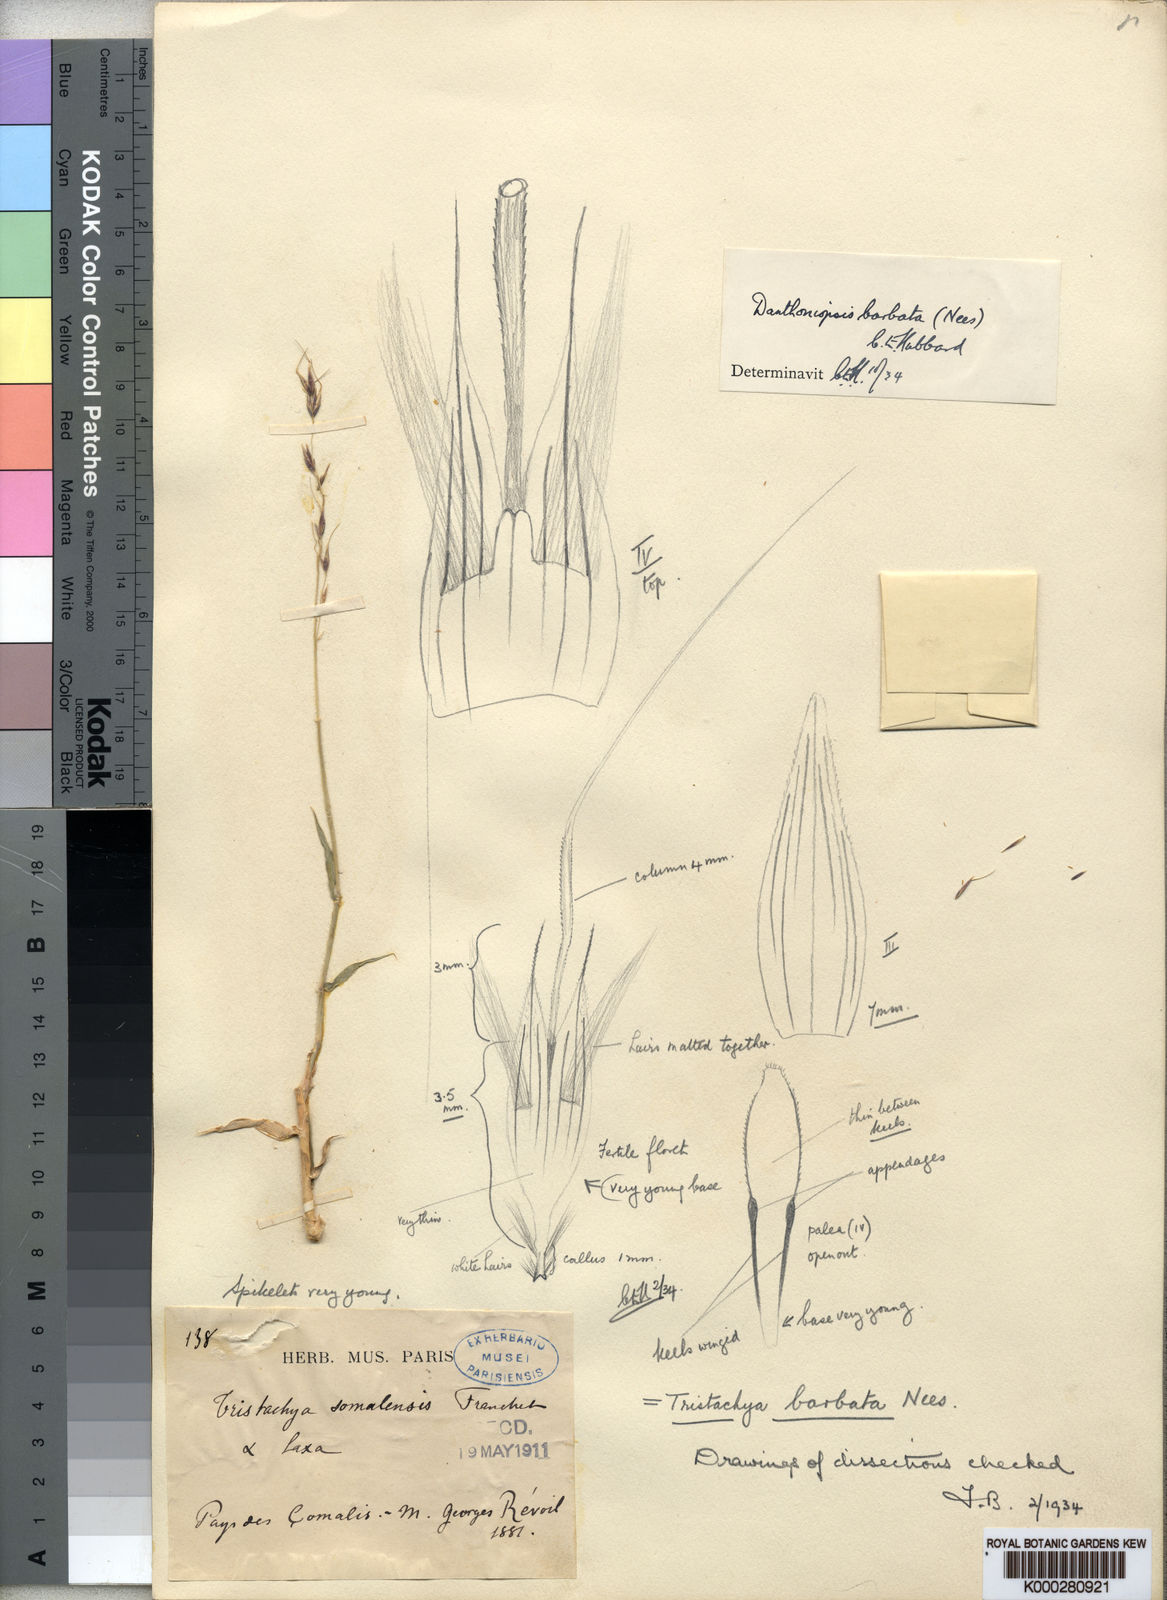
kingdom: Plantae
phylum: Tracheophyta
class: Liliopsida
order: Poales
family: Poaceae
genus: Danthoniopsis
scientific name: Danthoniopsis barbata
